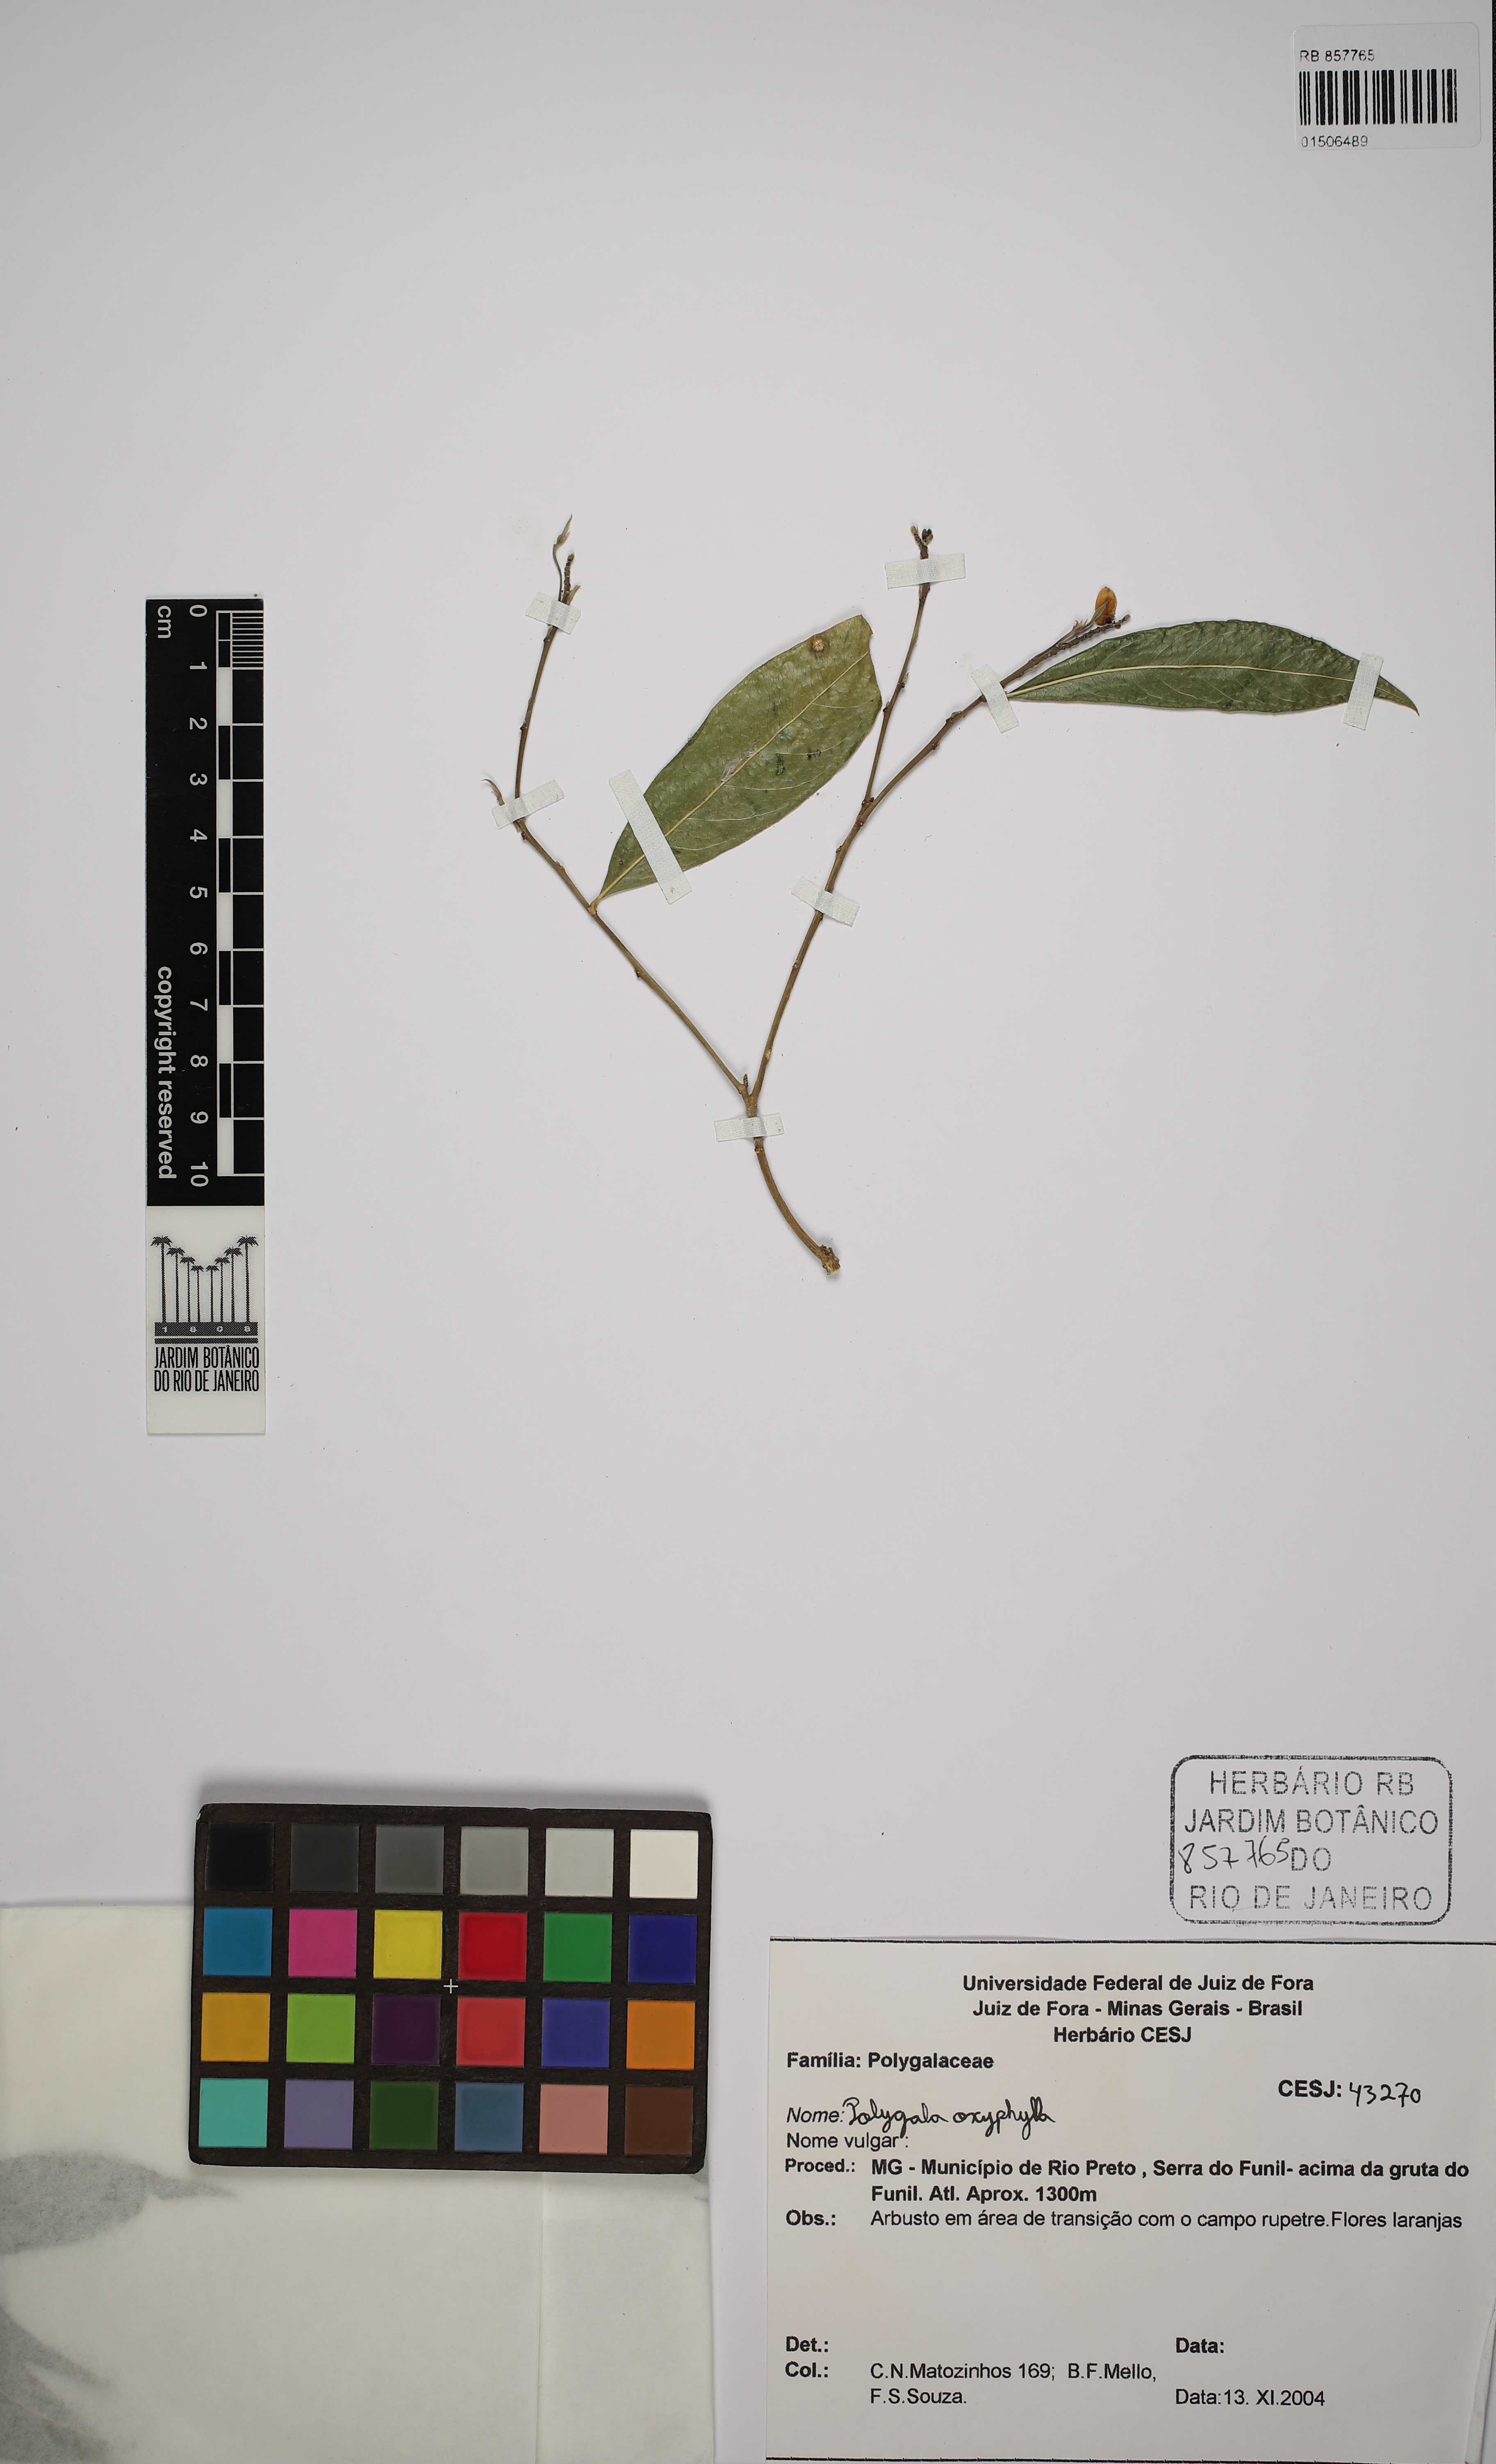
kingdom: Plantae
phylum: Tracheophyta
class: Magnoliopsida
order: Fabales
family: Polygalaceae
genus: Caamembeca
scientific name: Caamembeca oxyphylla
